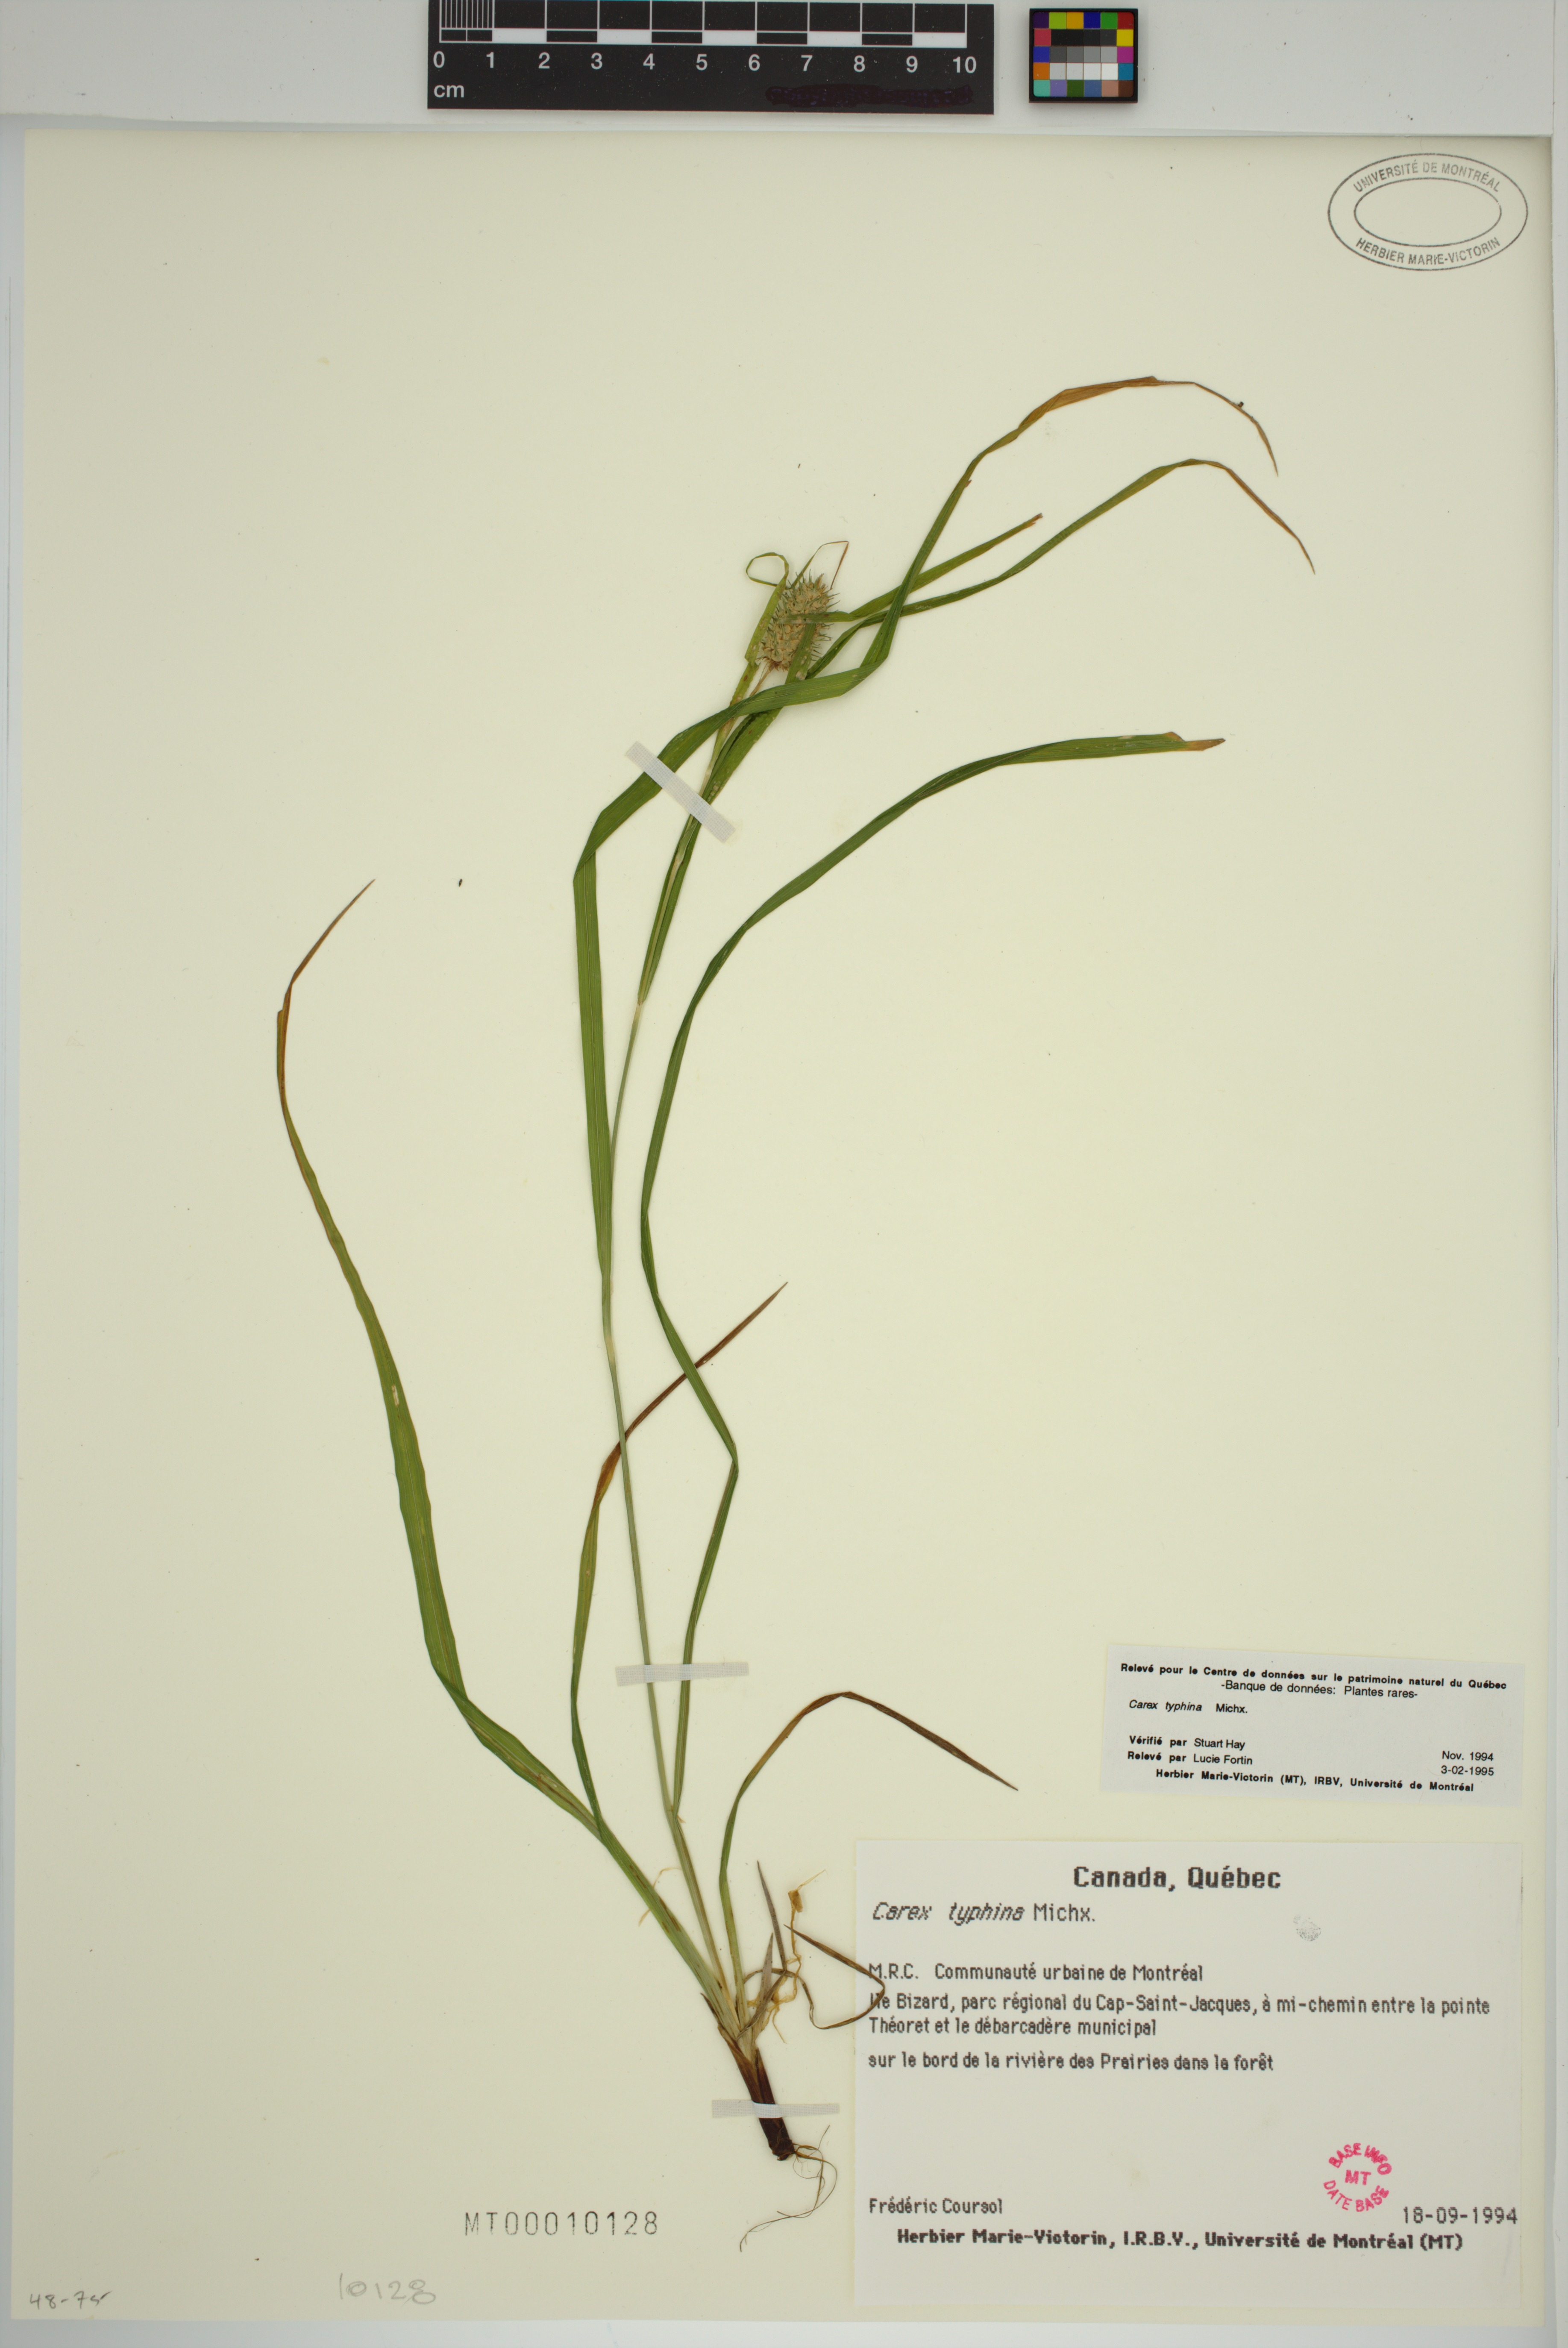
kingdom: Plantae
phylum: Tracheophyta
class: Liliopsida
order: Poales
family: Cyperaceae
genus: Carex
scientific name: Carex typhina
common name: Cattail sedge
